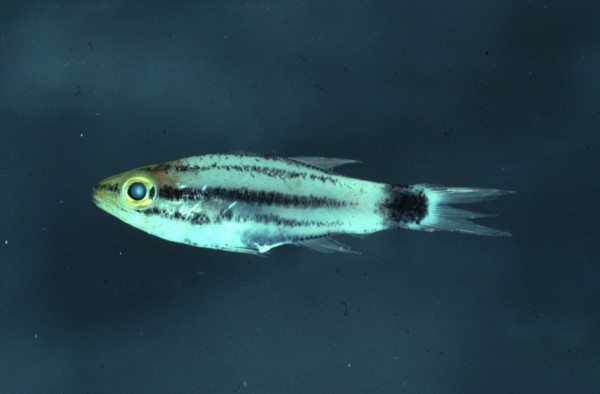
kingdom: Animalia
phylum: Chordata
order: Perciformes
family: Apogonidae
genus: Cheilodipterus
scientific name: Cheilodipterus macrodon
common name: Eight-lined cardinalfish
